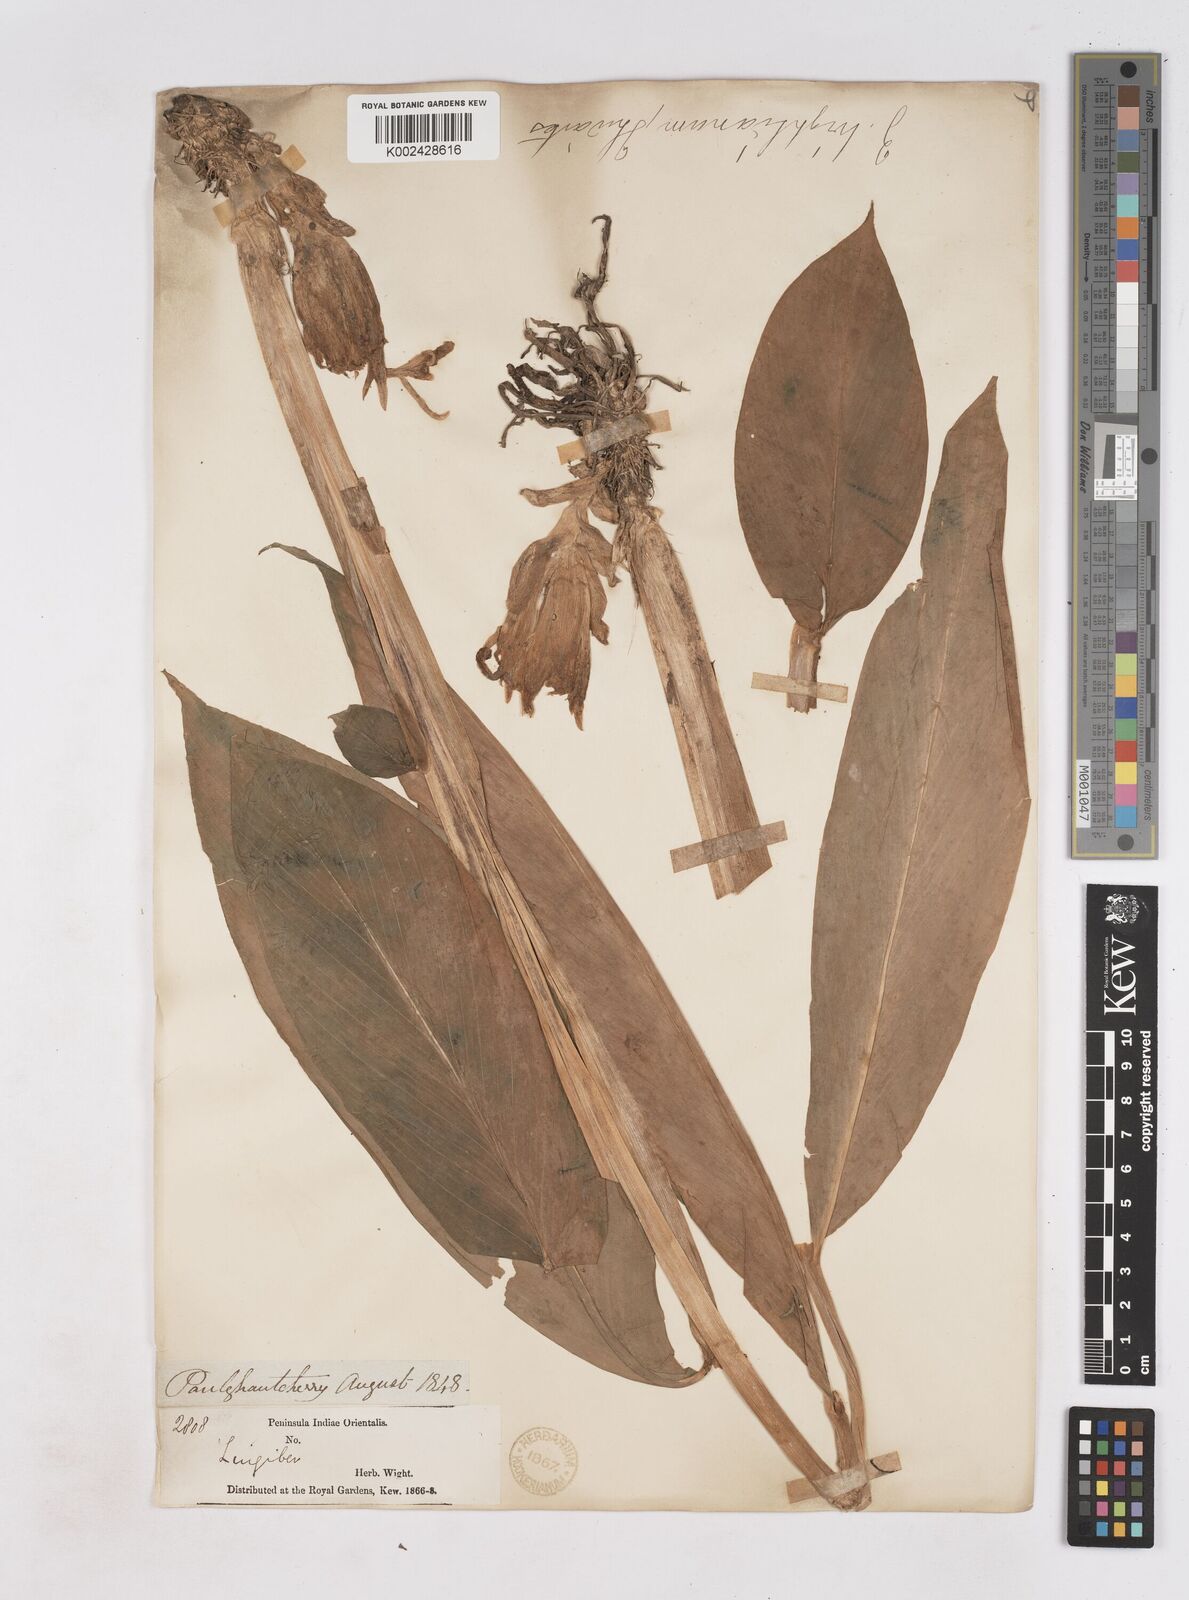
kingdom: Plantae
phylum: Tracheophyta
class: Liliopsida
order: Zingiberales
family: Zingiberaceae
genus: Zingiber
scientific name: Zingiber wightianum
